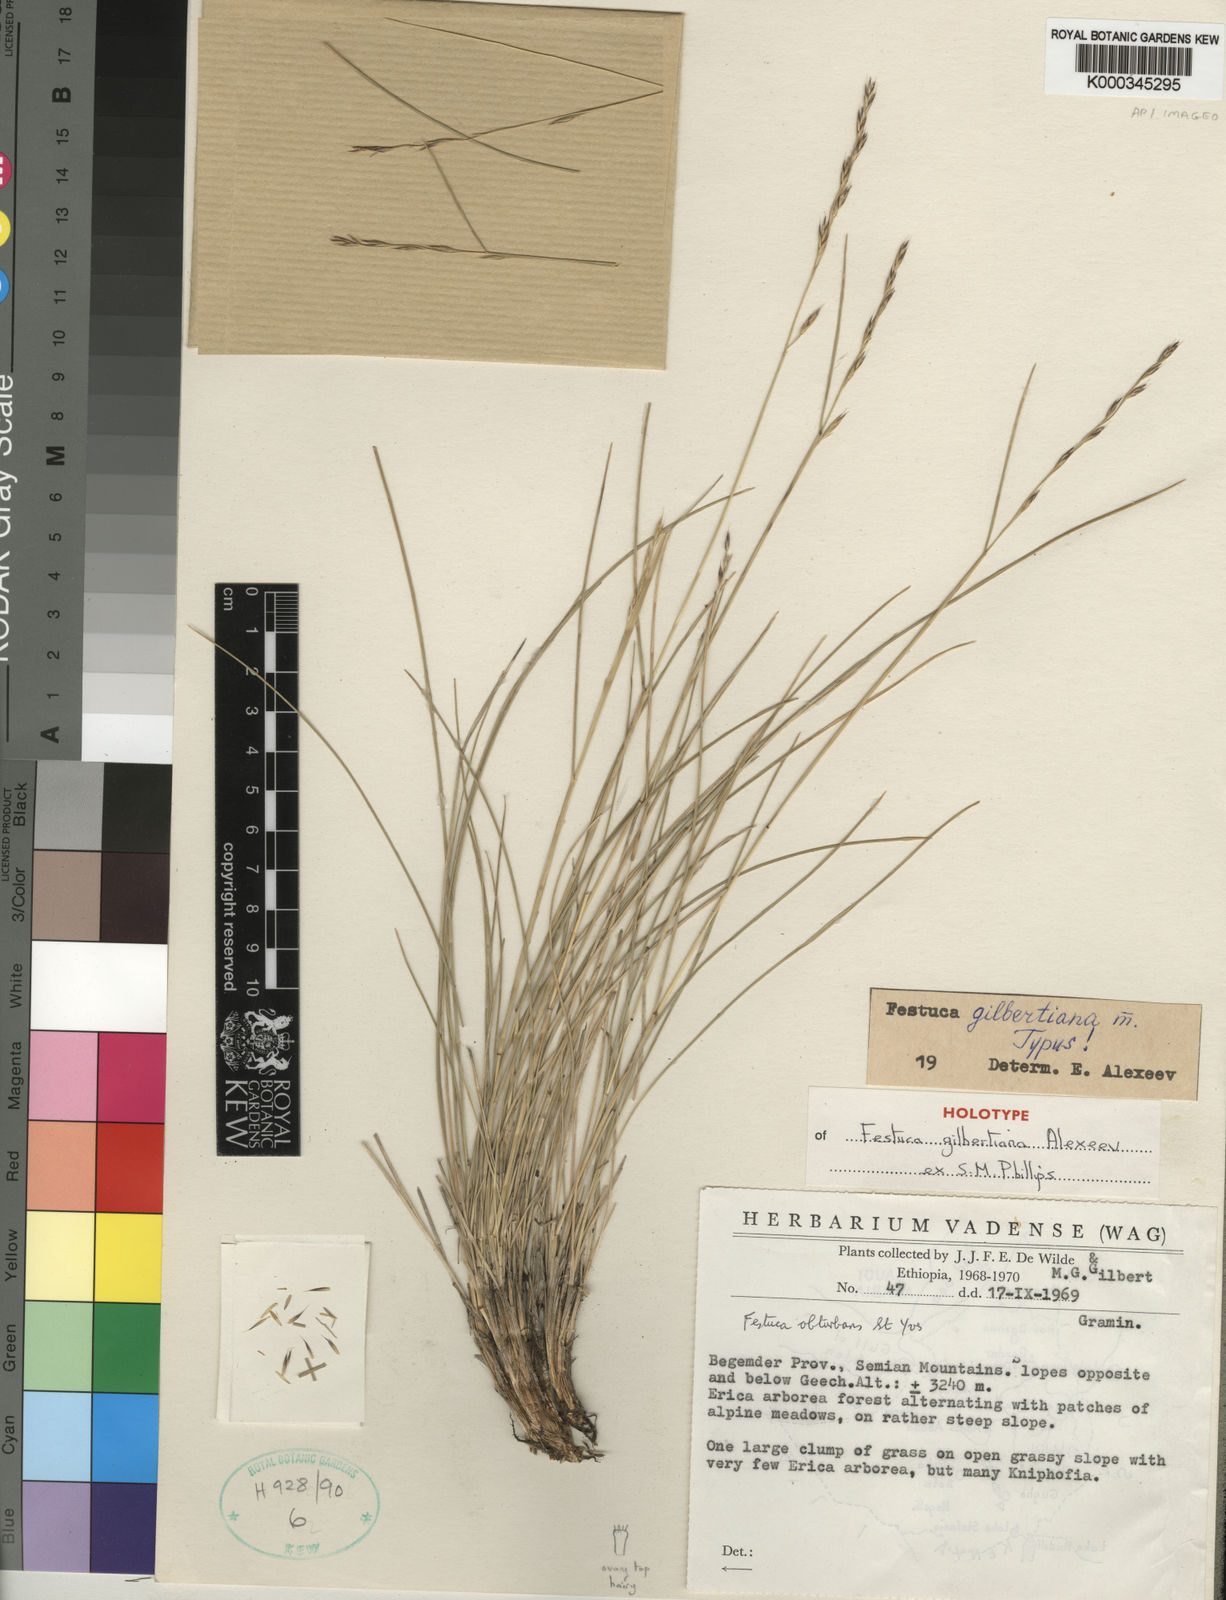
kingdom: Plantae
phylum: Tracheophyta
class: Liliopsida
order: Poales
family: Poaceae
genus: Festuca
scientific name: Festuca
